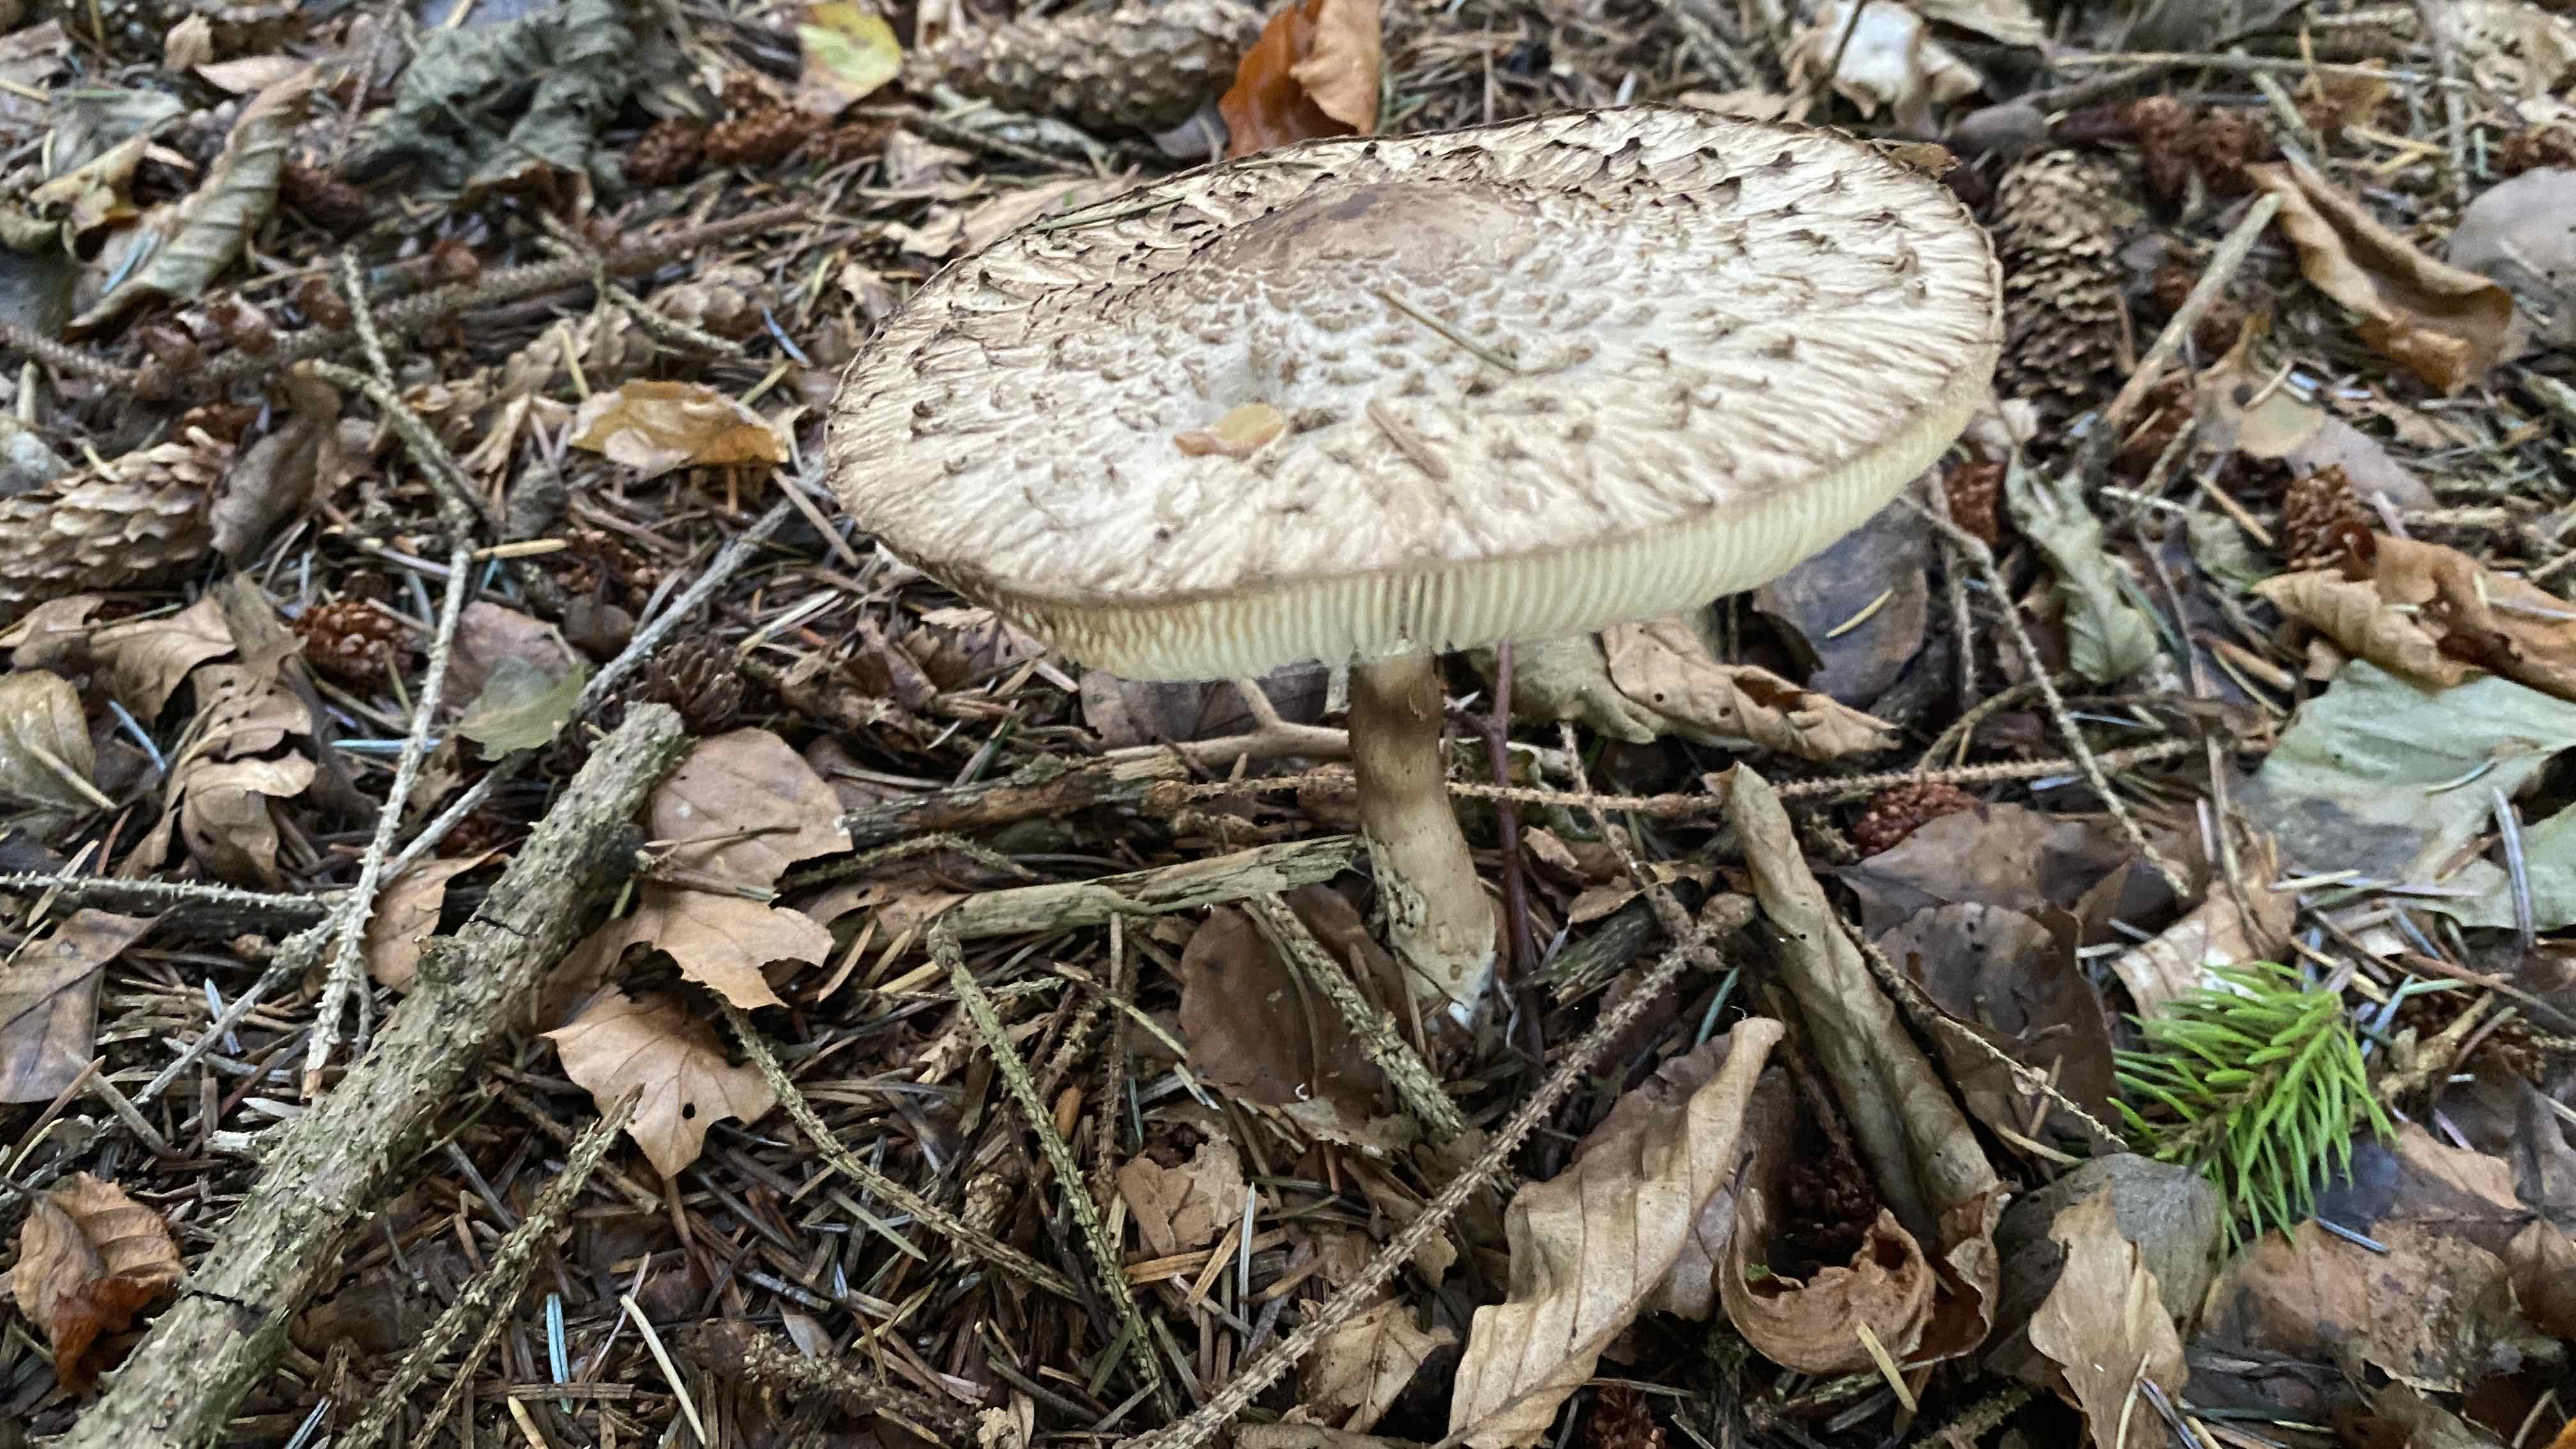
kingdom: Fungi
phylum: Basidiomycota
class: Agaricomycetes
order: Agaricales
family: Agaricaceae
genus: Chlorophyllum
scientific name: Chlorophyllum olivieri
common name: almindelig rabarberhat
